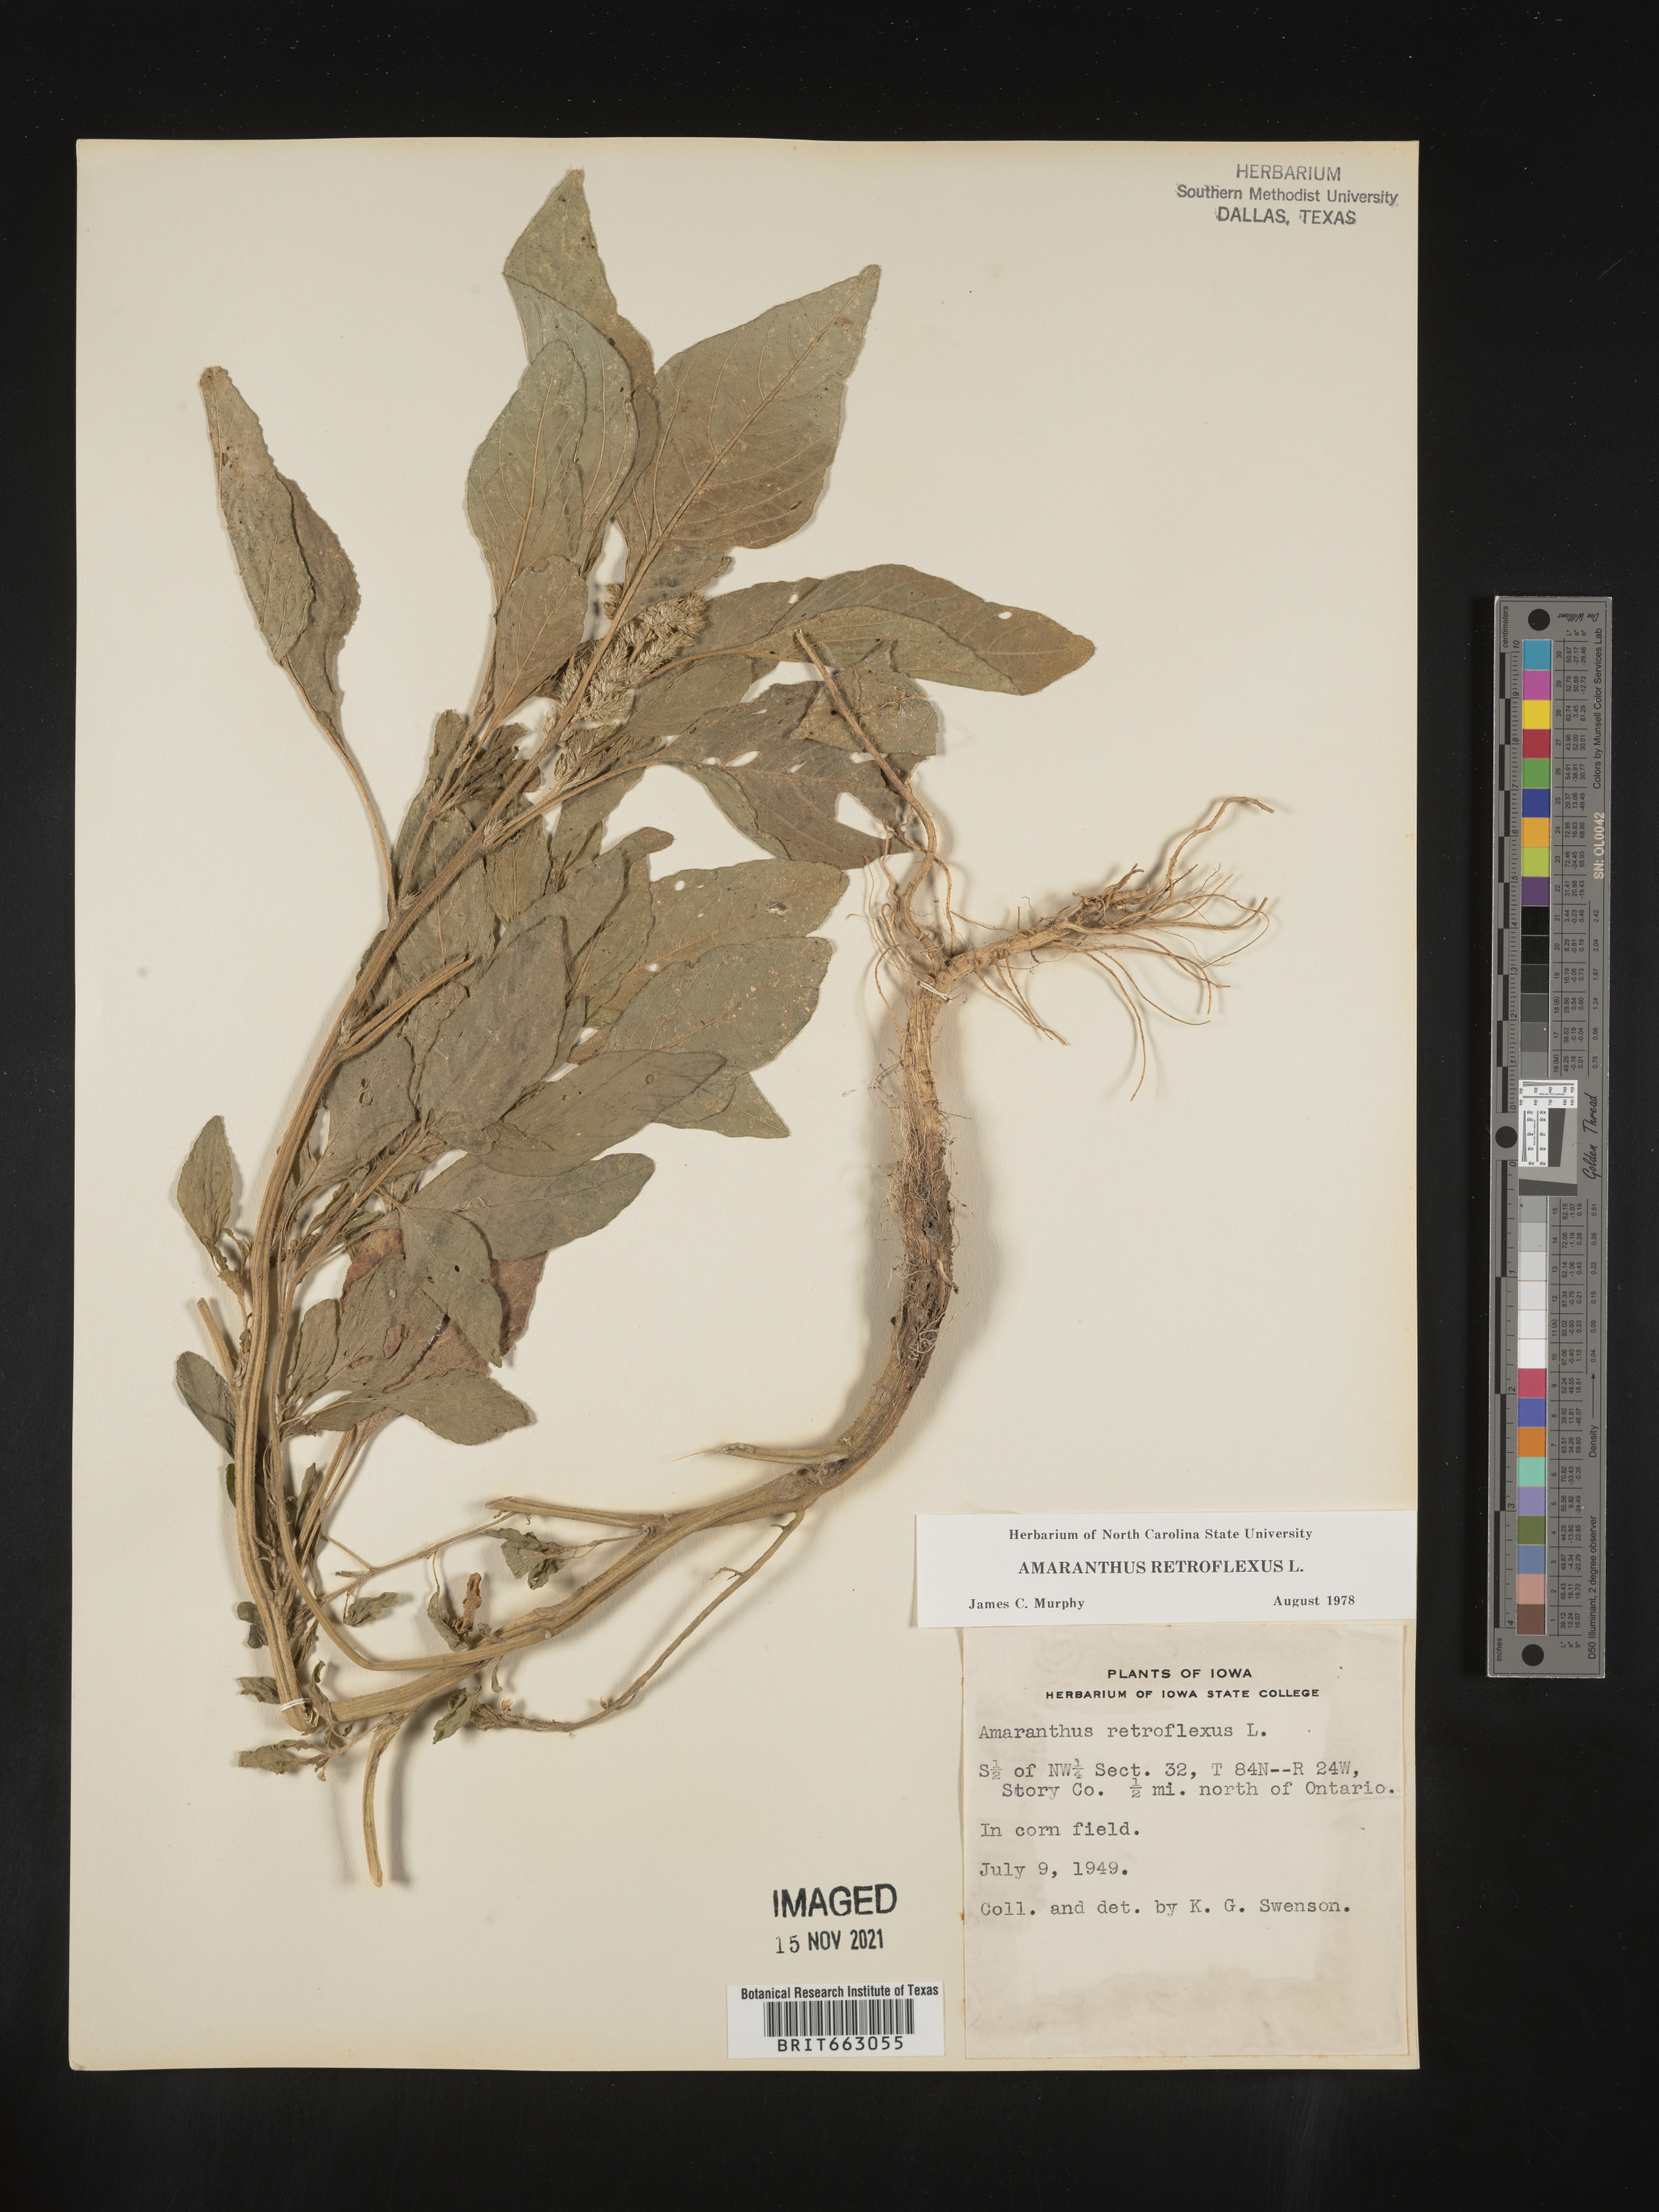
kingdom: Plantae
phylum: Tracheophyta
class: Magnoliopsida
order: Caryophyllales
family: Amaranthaceae
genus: Amaranthus
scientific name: Amaranthus retroflexus
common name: Redroot amaranth
